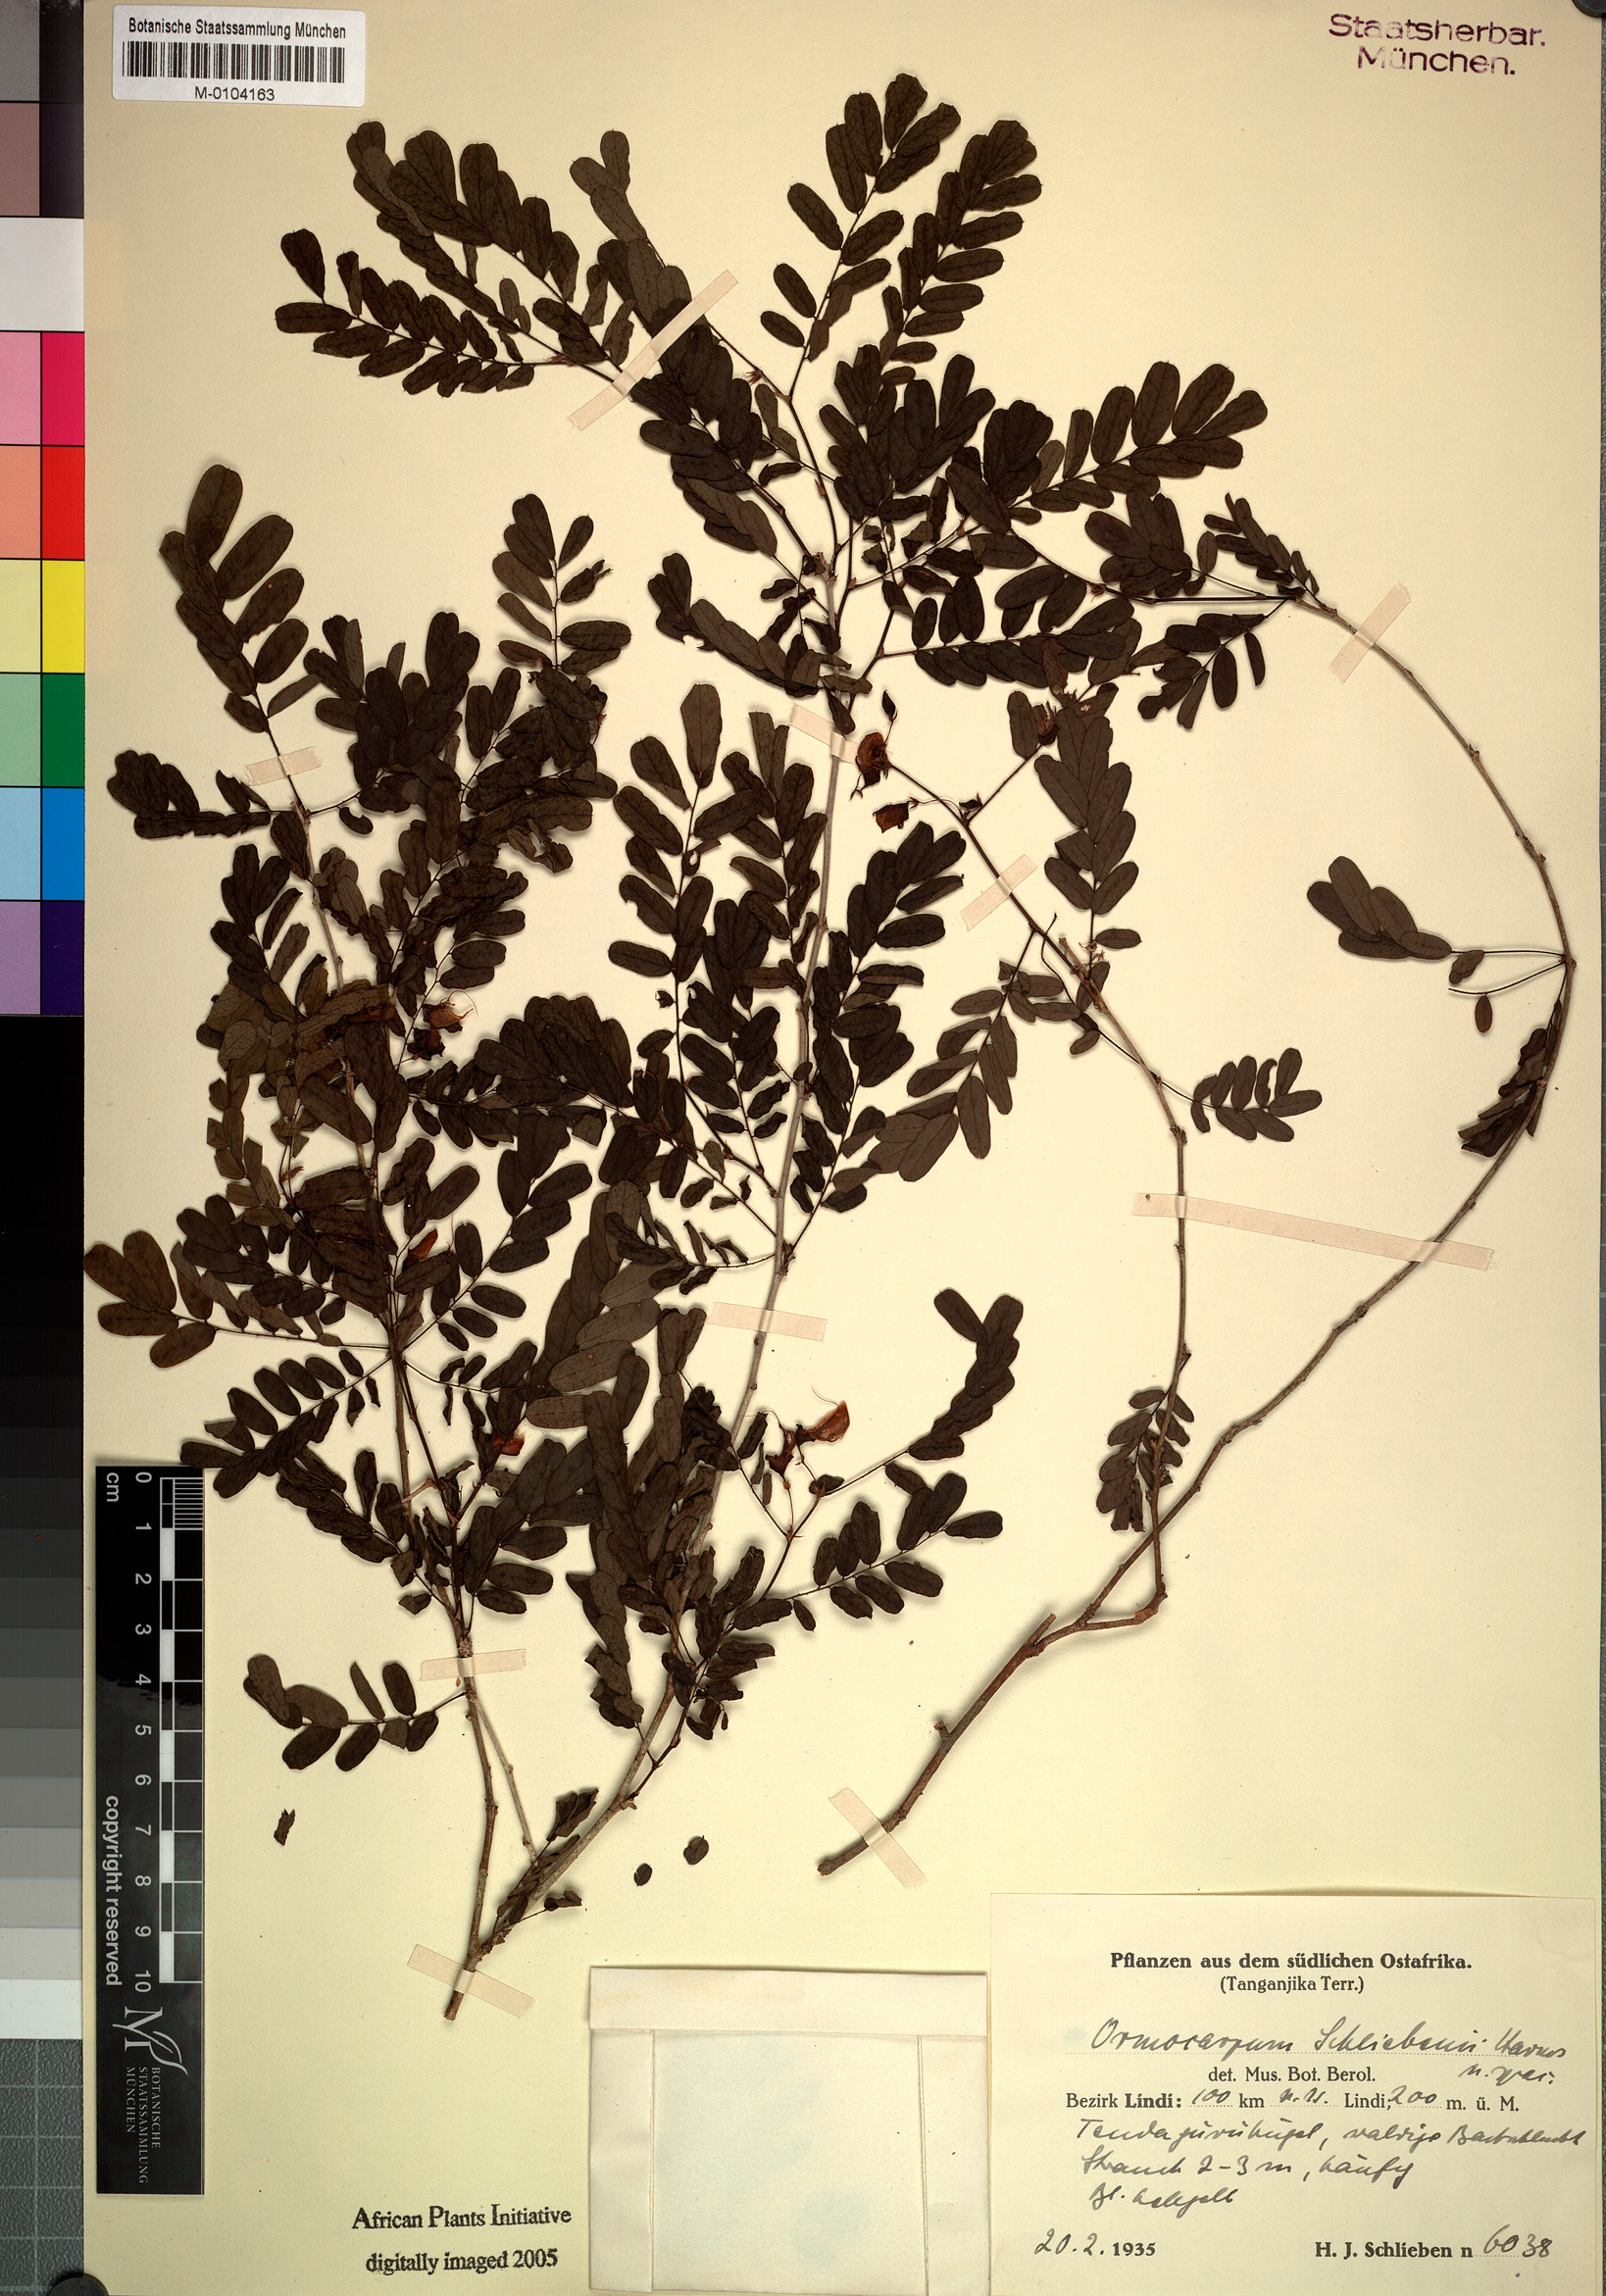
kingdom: Plantae
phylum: Tracheophyta
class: Magnoliopsida
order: Fabales
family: Fabaceae
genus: Ormocarpum
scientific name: Ormocarpum schliebenii
